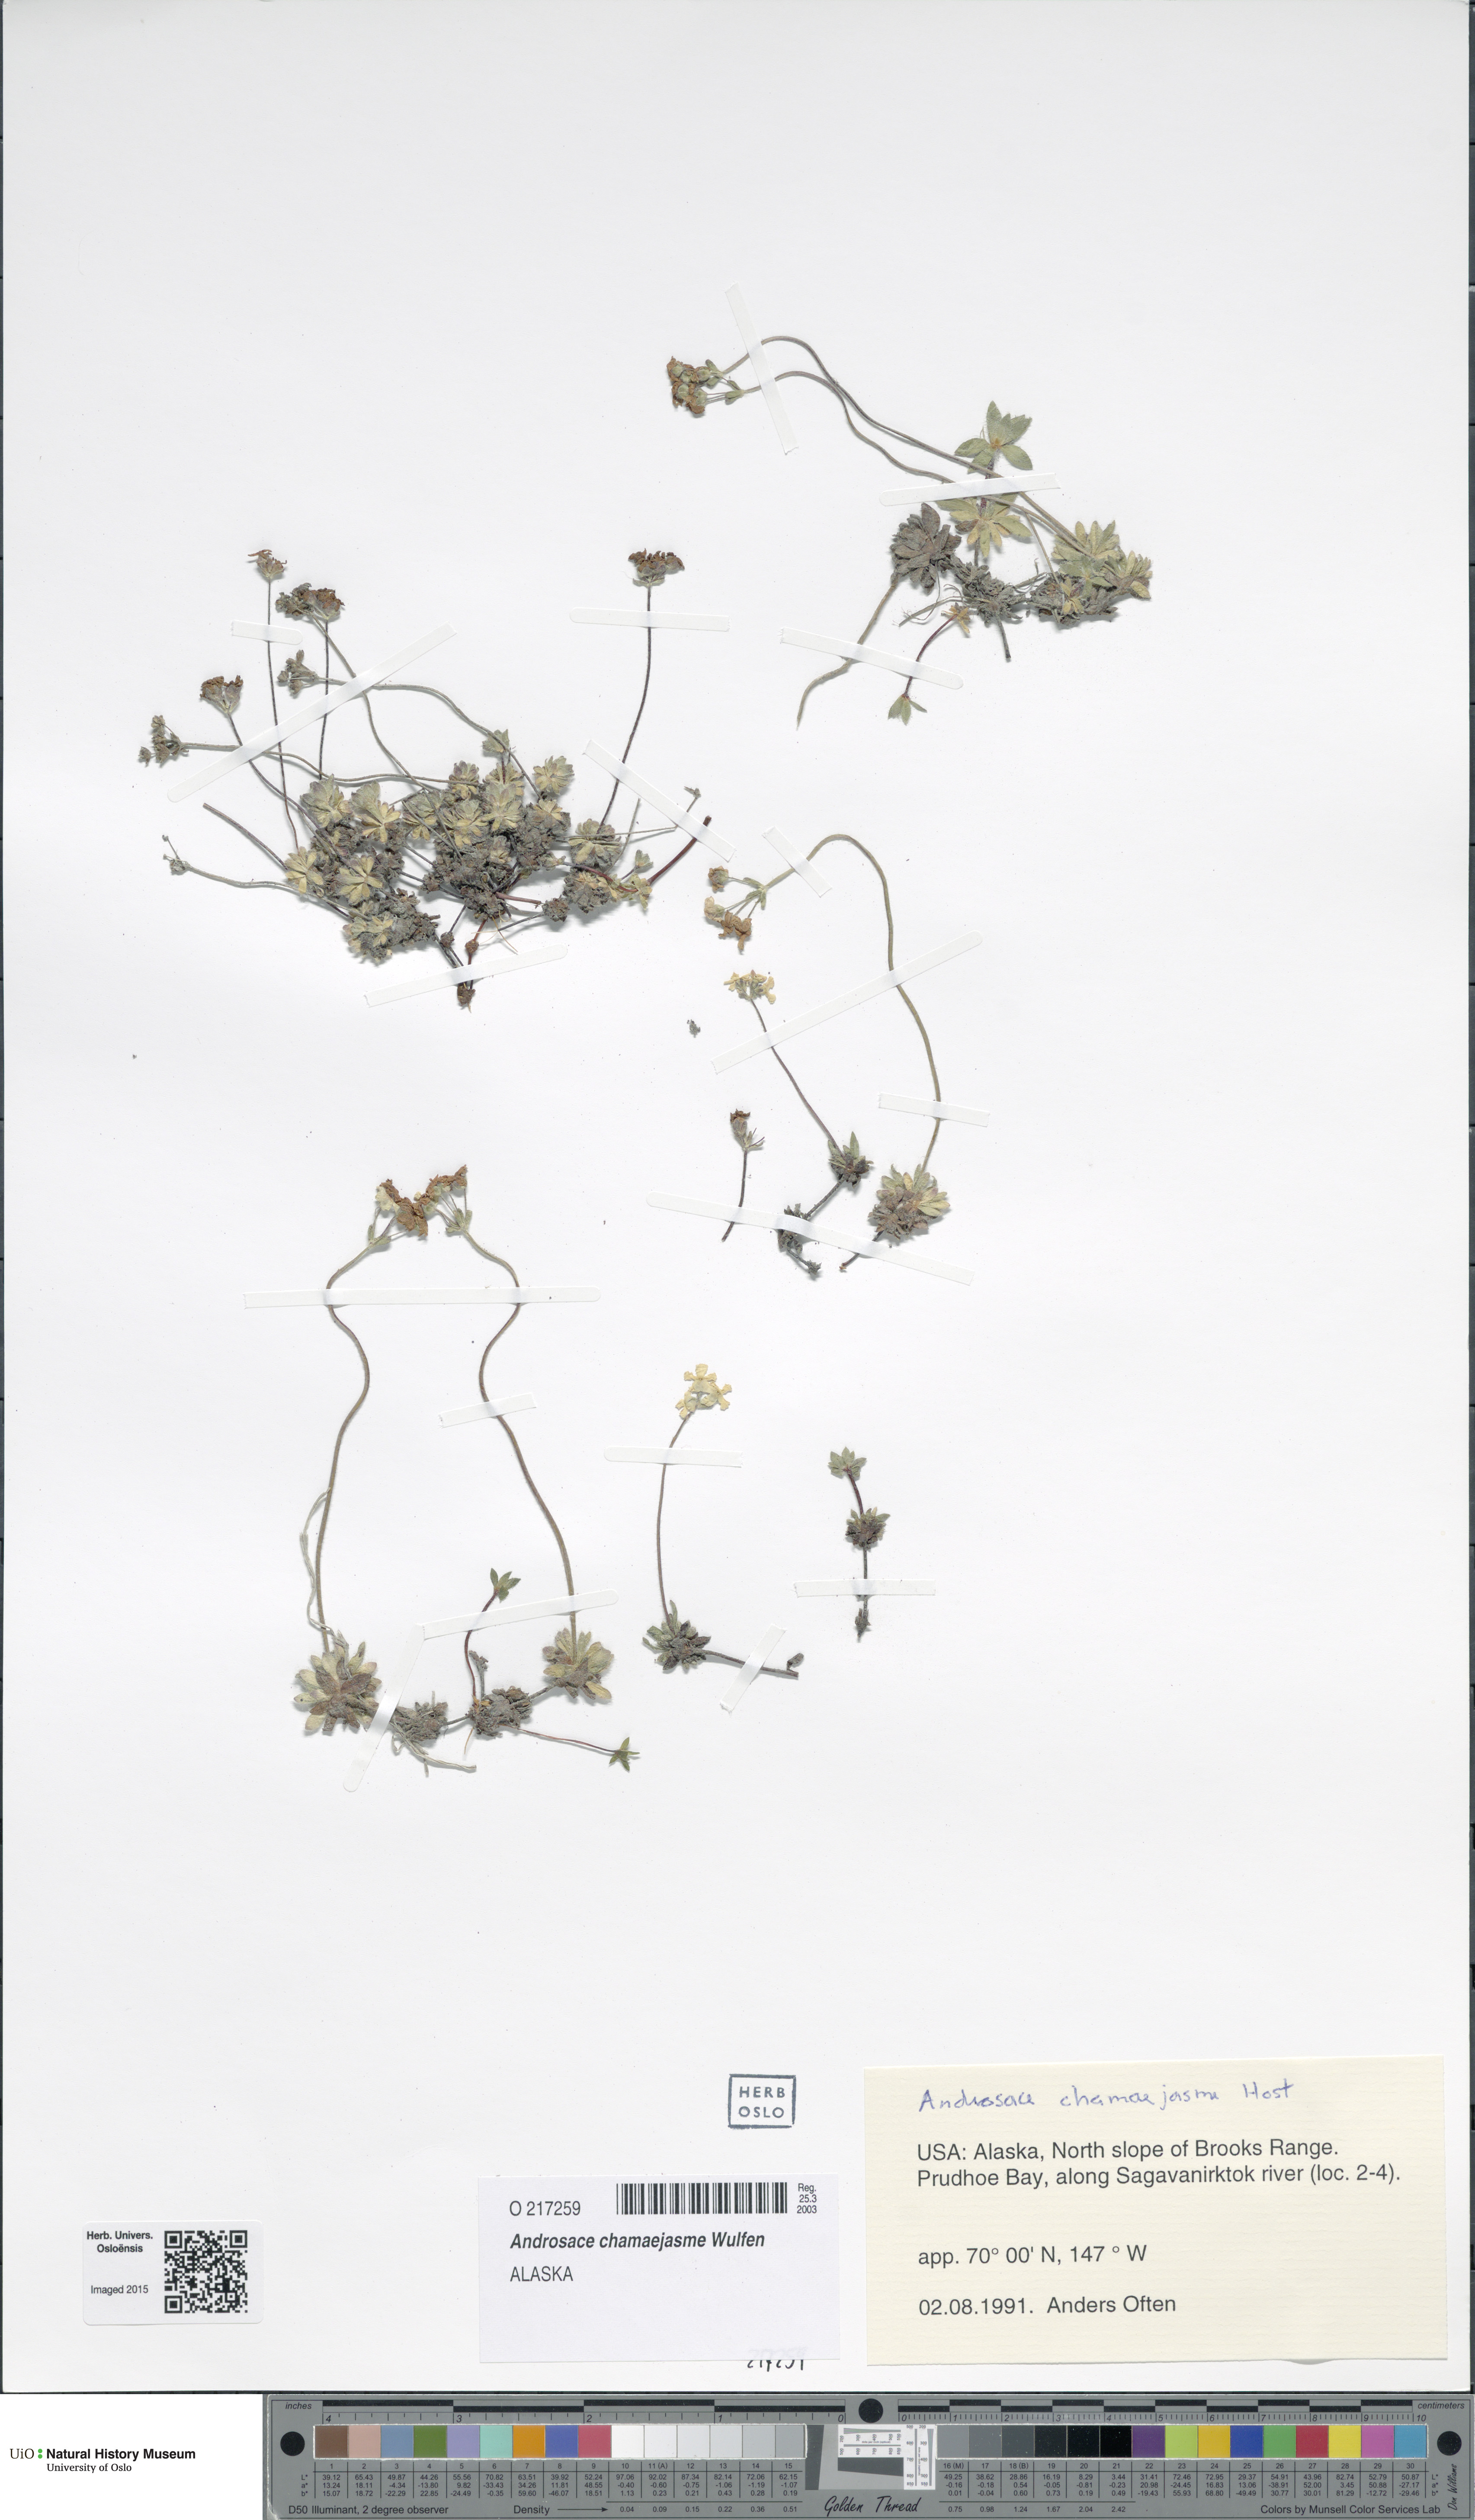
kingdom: Plantae
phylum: Tracheophyta
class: Magnoliopsida
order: Ericales
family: Primulaceae
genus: Androsace
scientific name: Androsace chamaejasme
